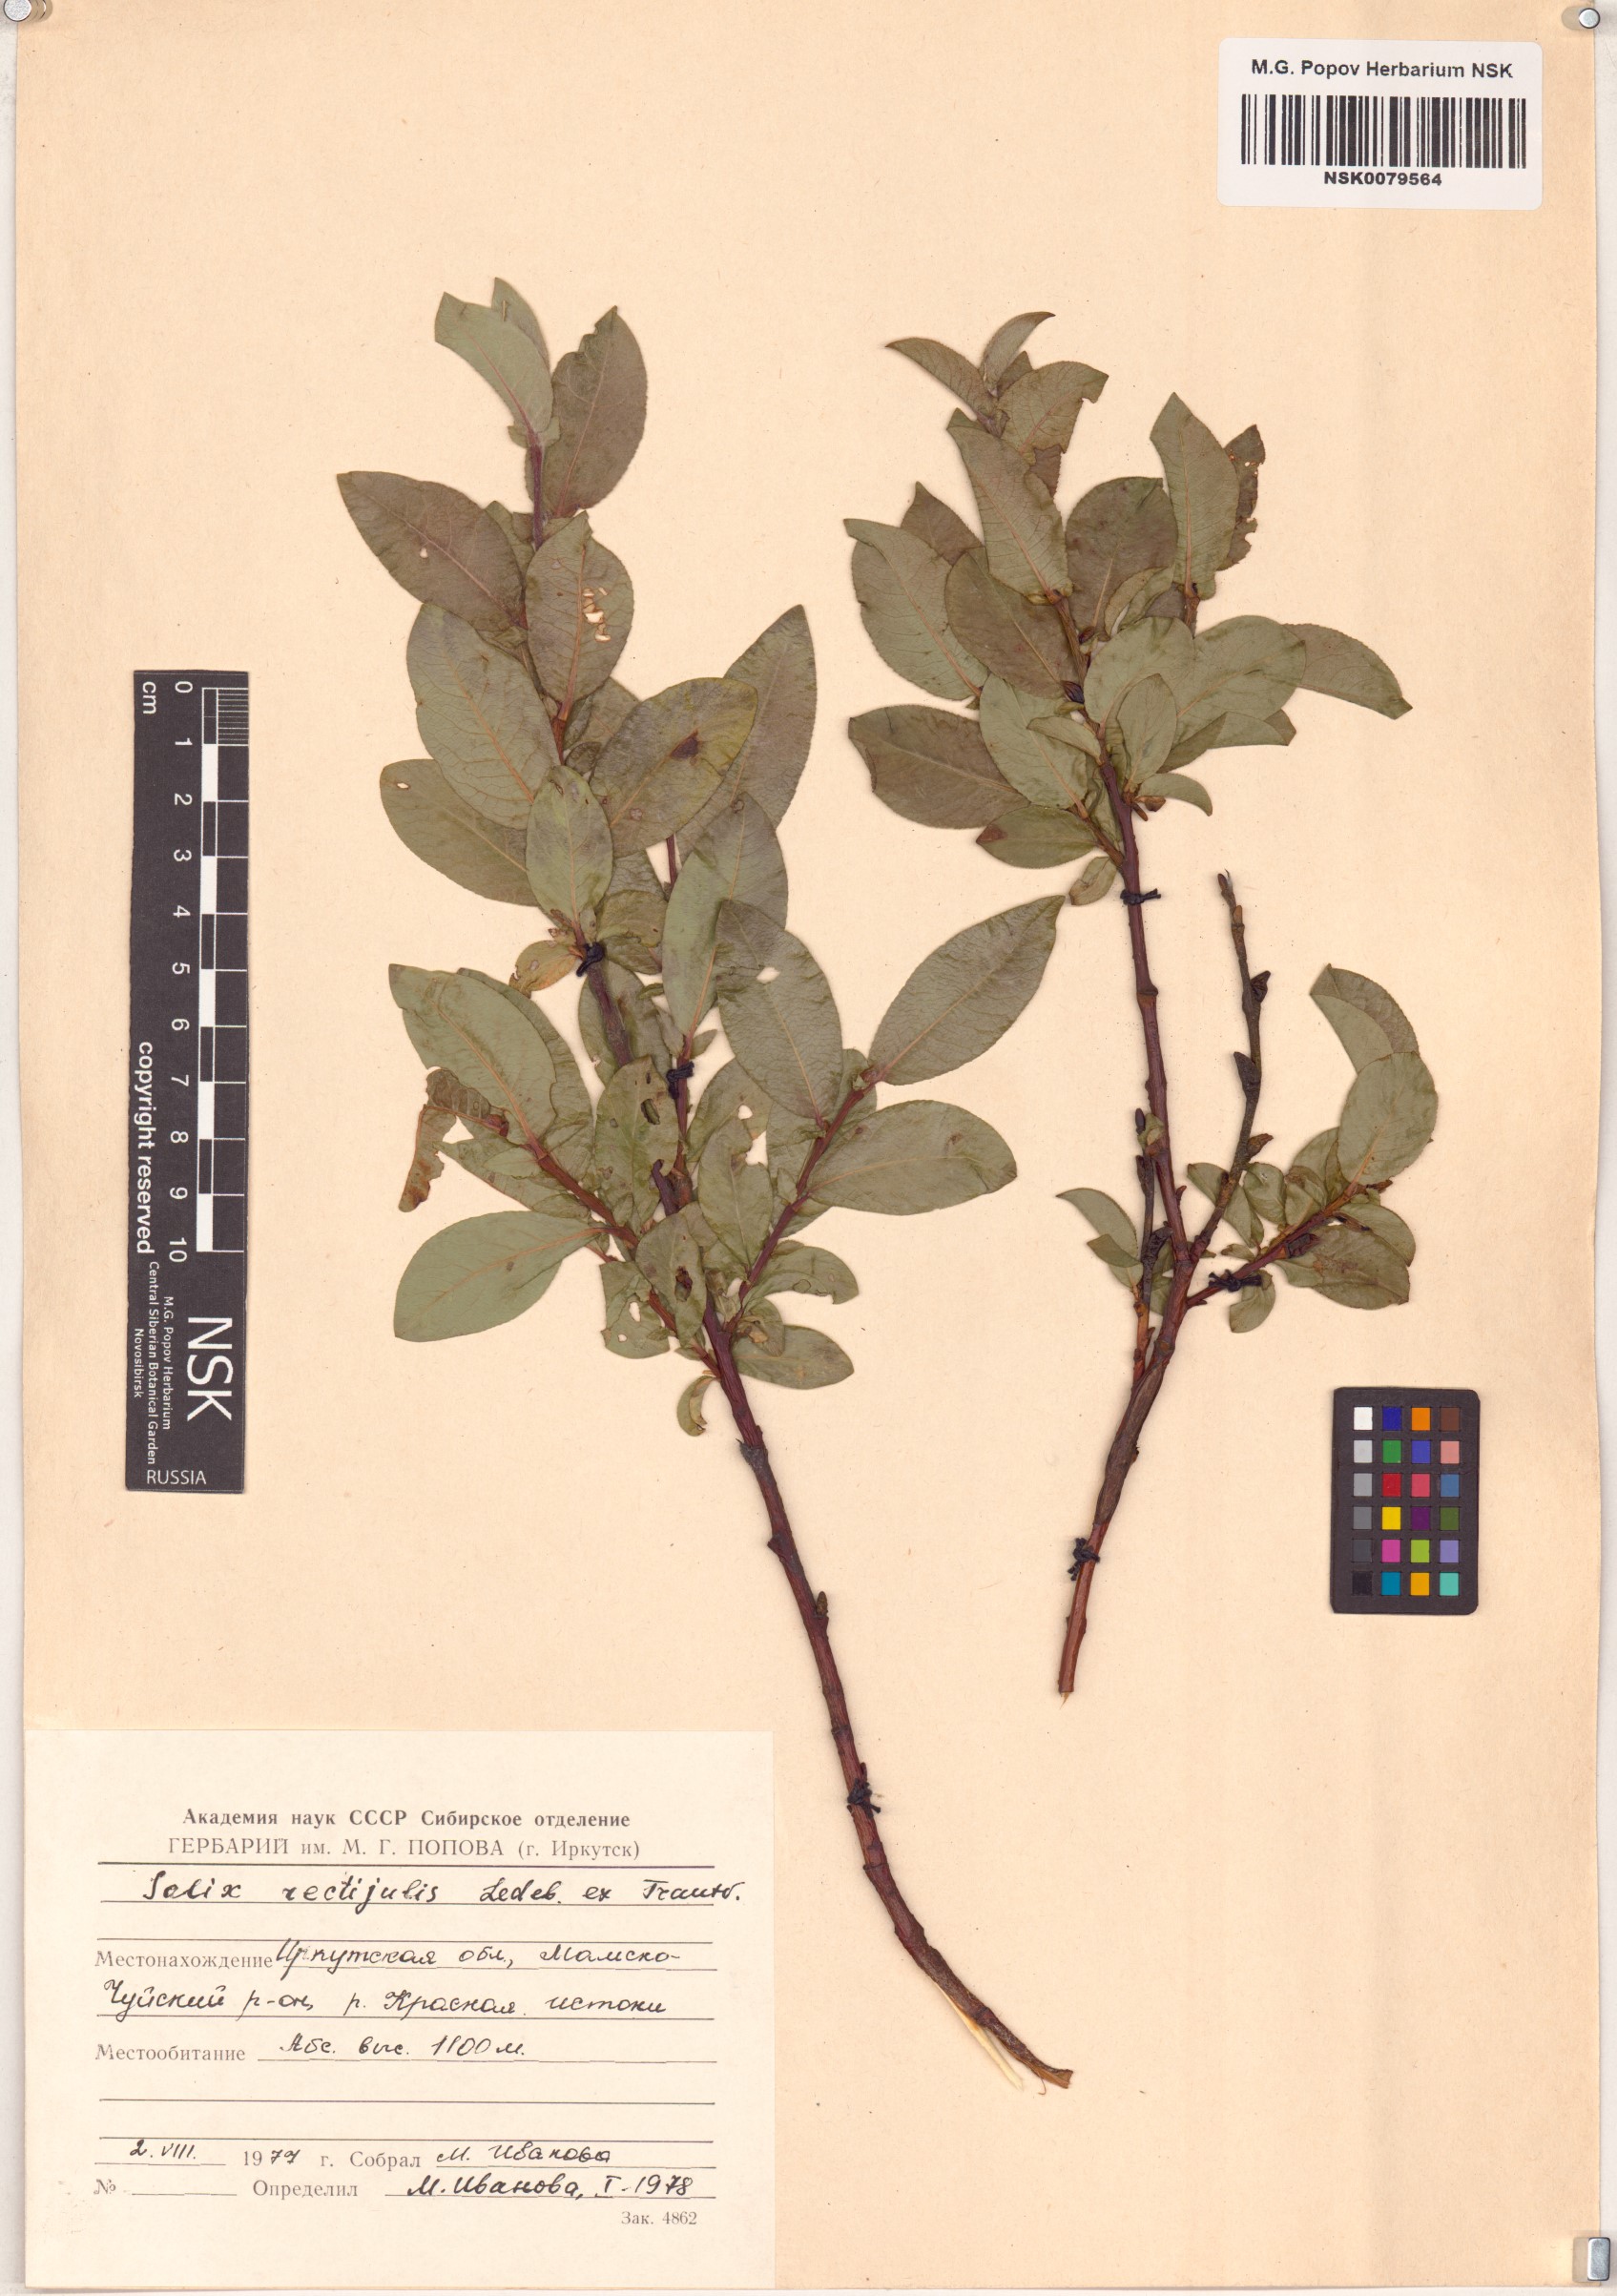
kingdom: Plantae
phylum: Tracheophyta
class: Magnoliopsida
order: Malpighiales
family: Salicaceae
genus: Salix
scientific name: Salix rectijulis
